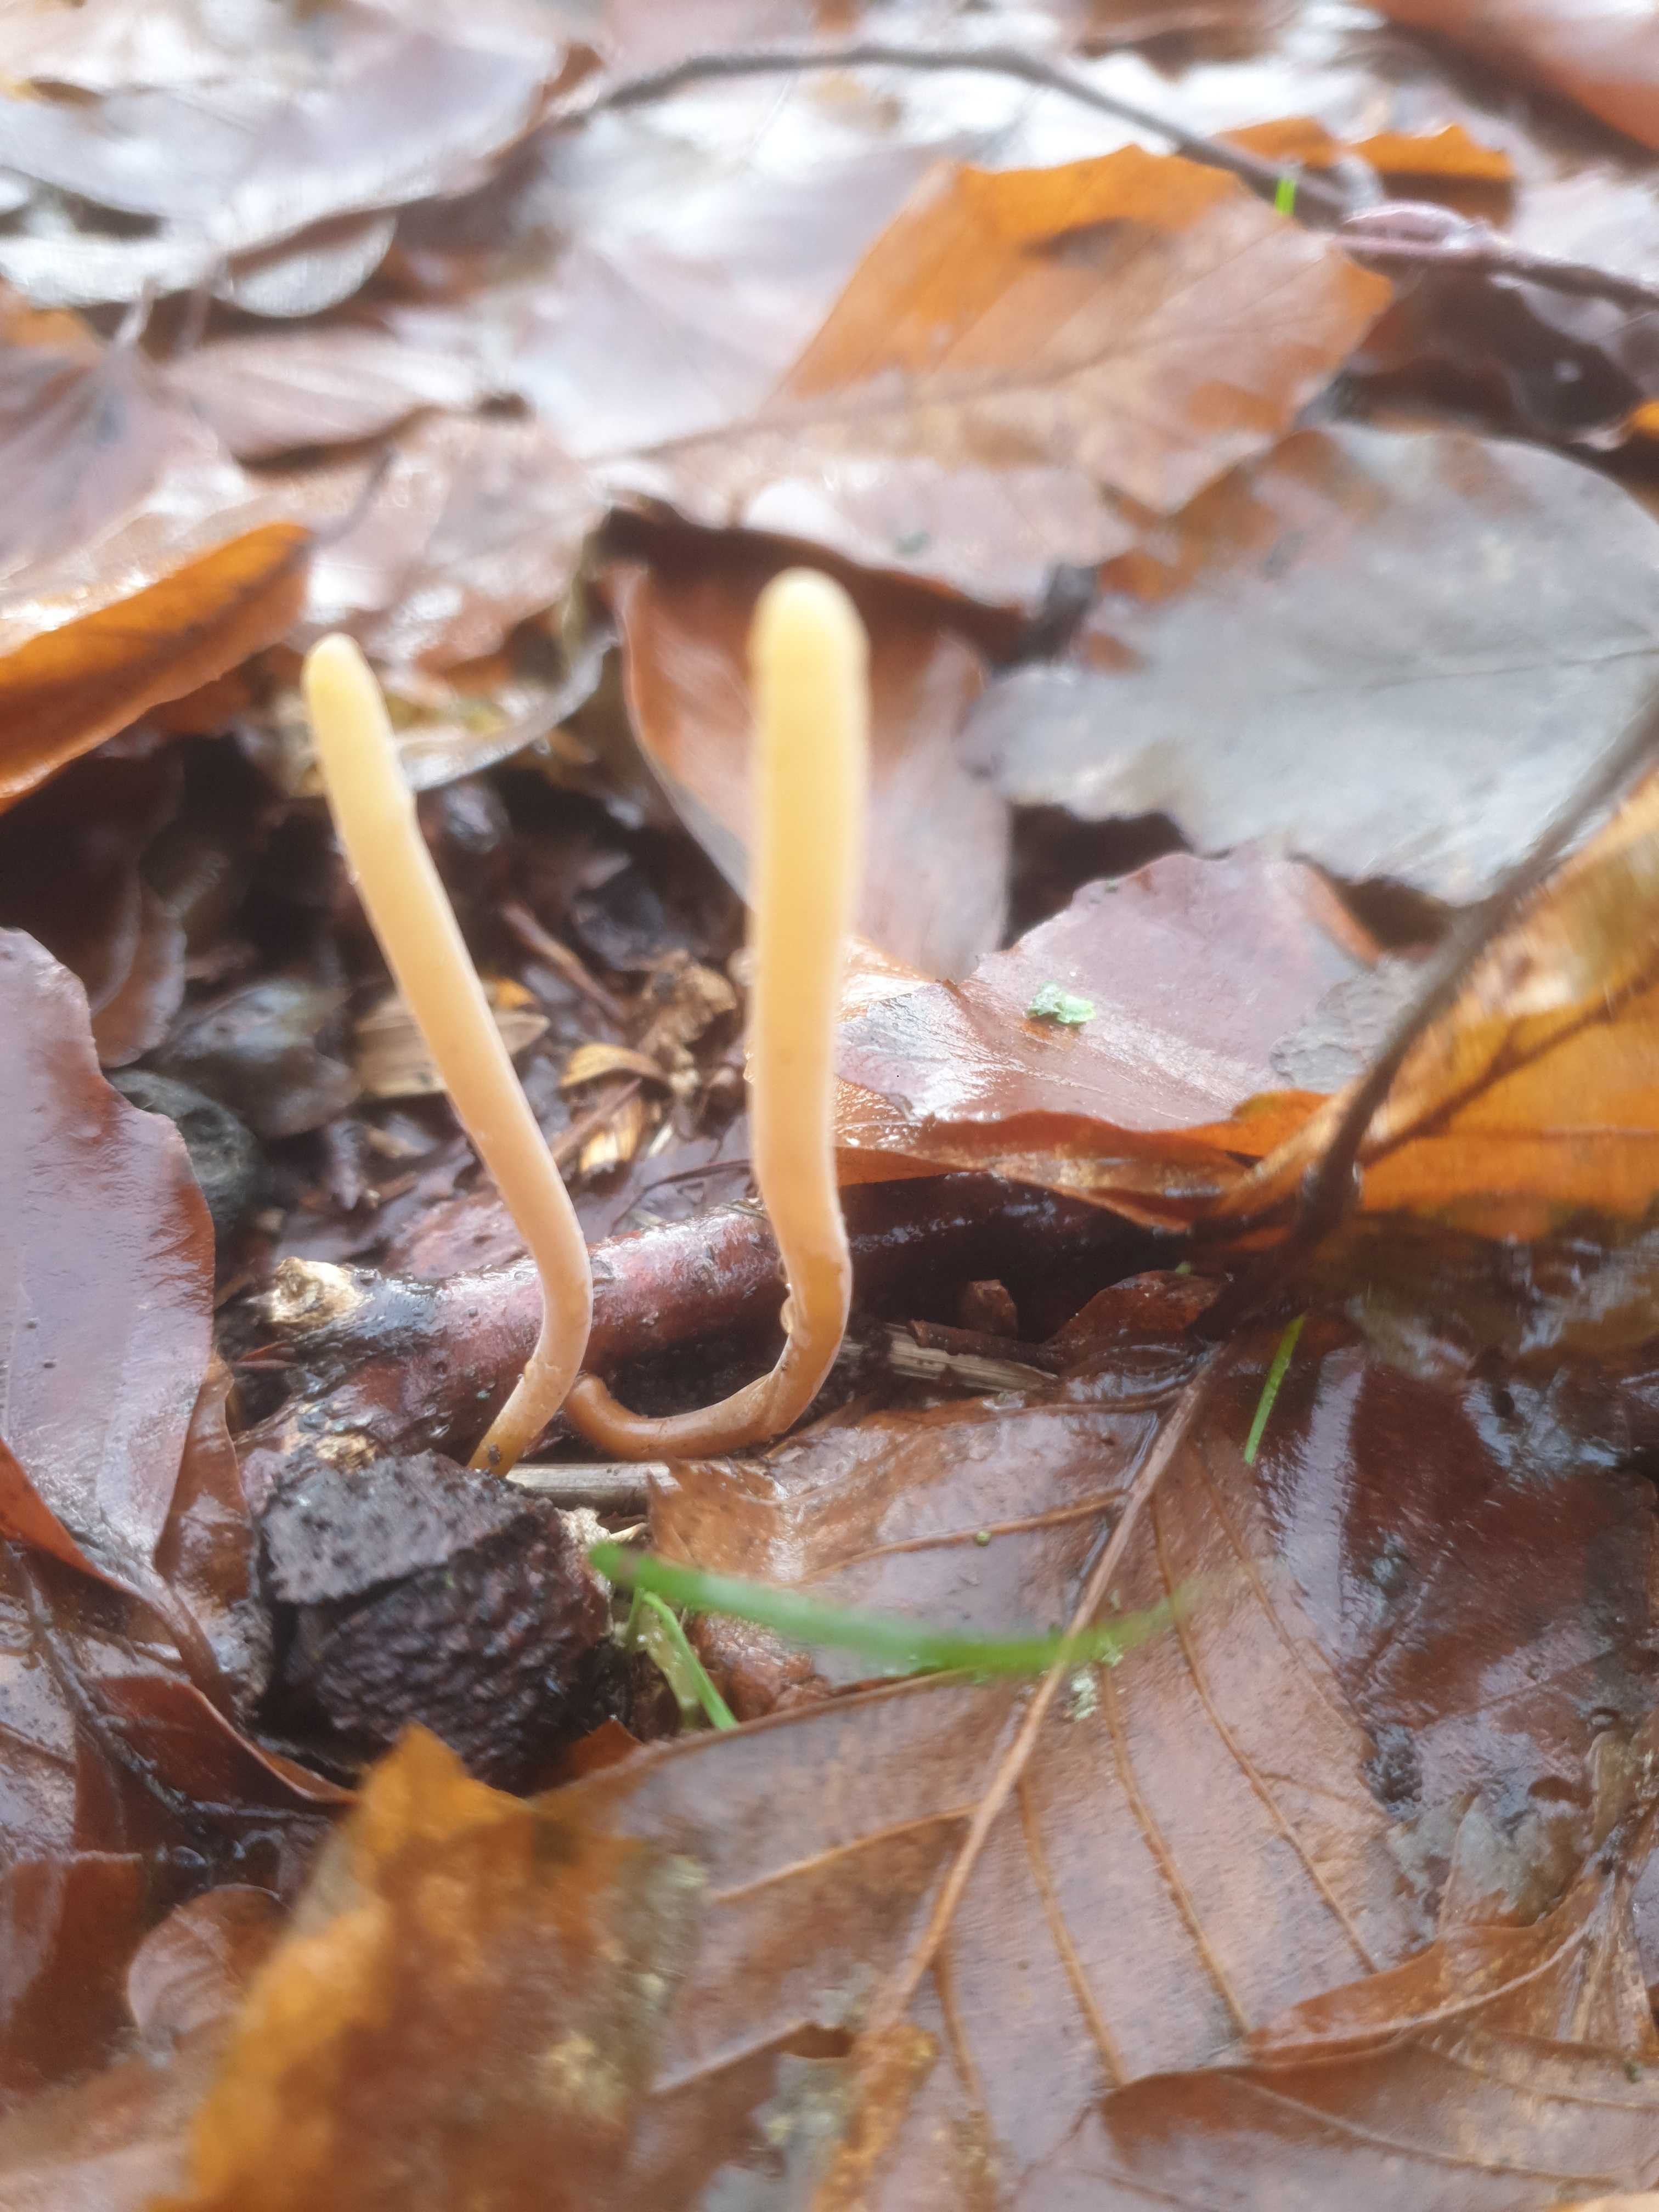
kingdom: Fungi
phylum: Basidiomycota
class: Agaricomycetes
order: Agaricales
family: Typhulaceae
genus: Typhula
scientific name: Typhula fistulosa
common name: pibet rørkølle
